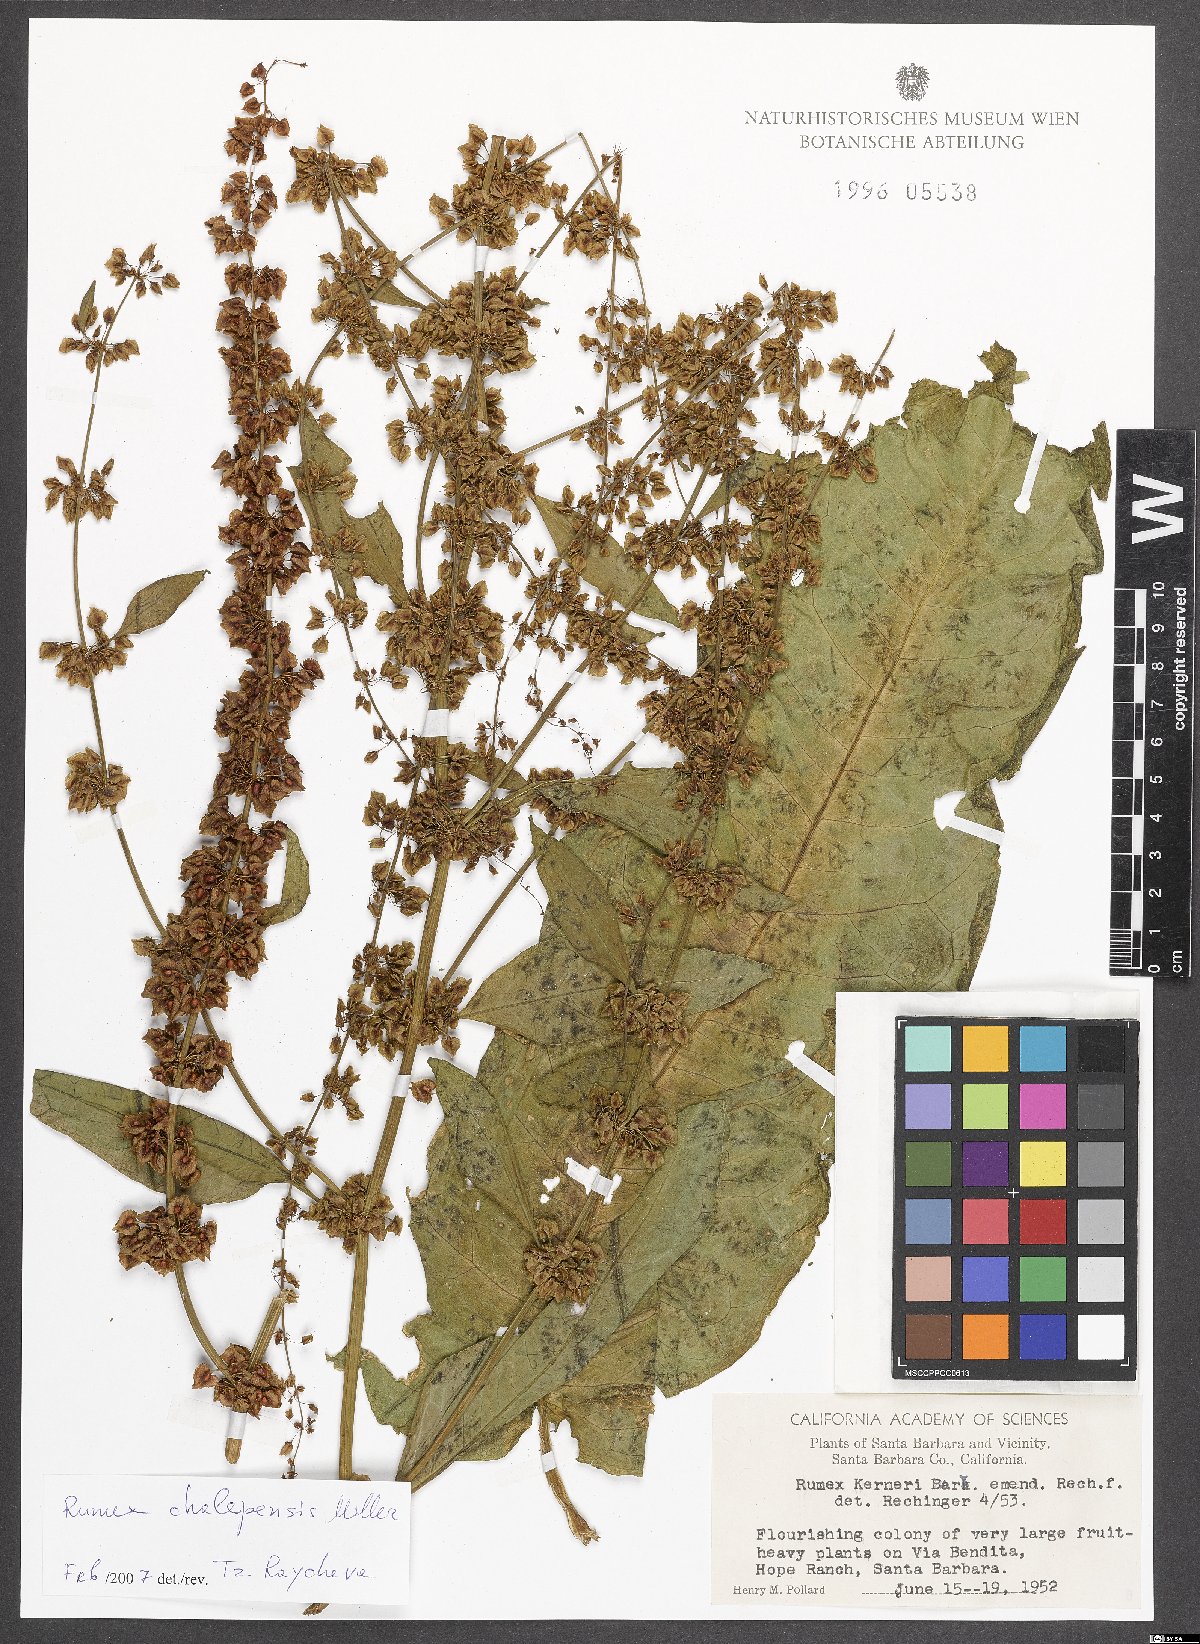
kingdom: Plantae
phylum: Tracheophyta
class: Magnoliopsida
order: Caryophyllales
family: Polygonaceae
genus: Rumex
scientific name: Rumex chalepensis
